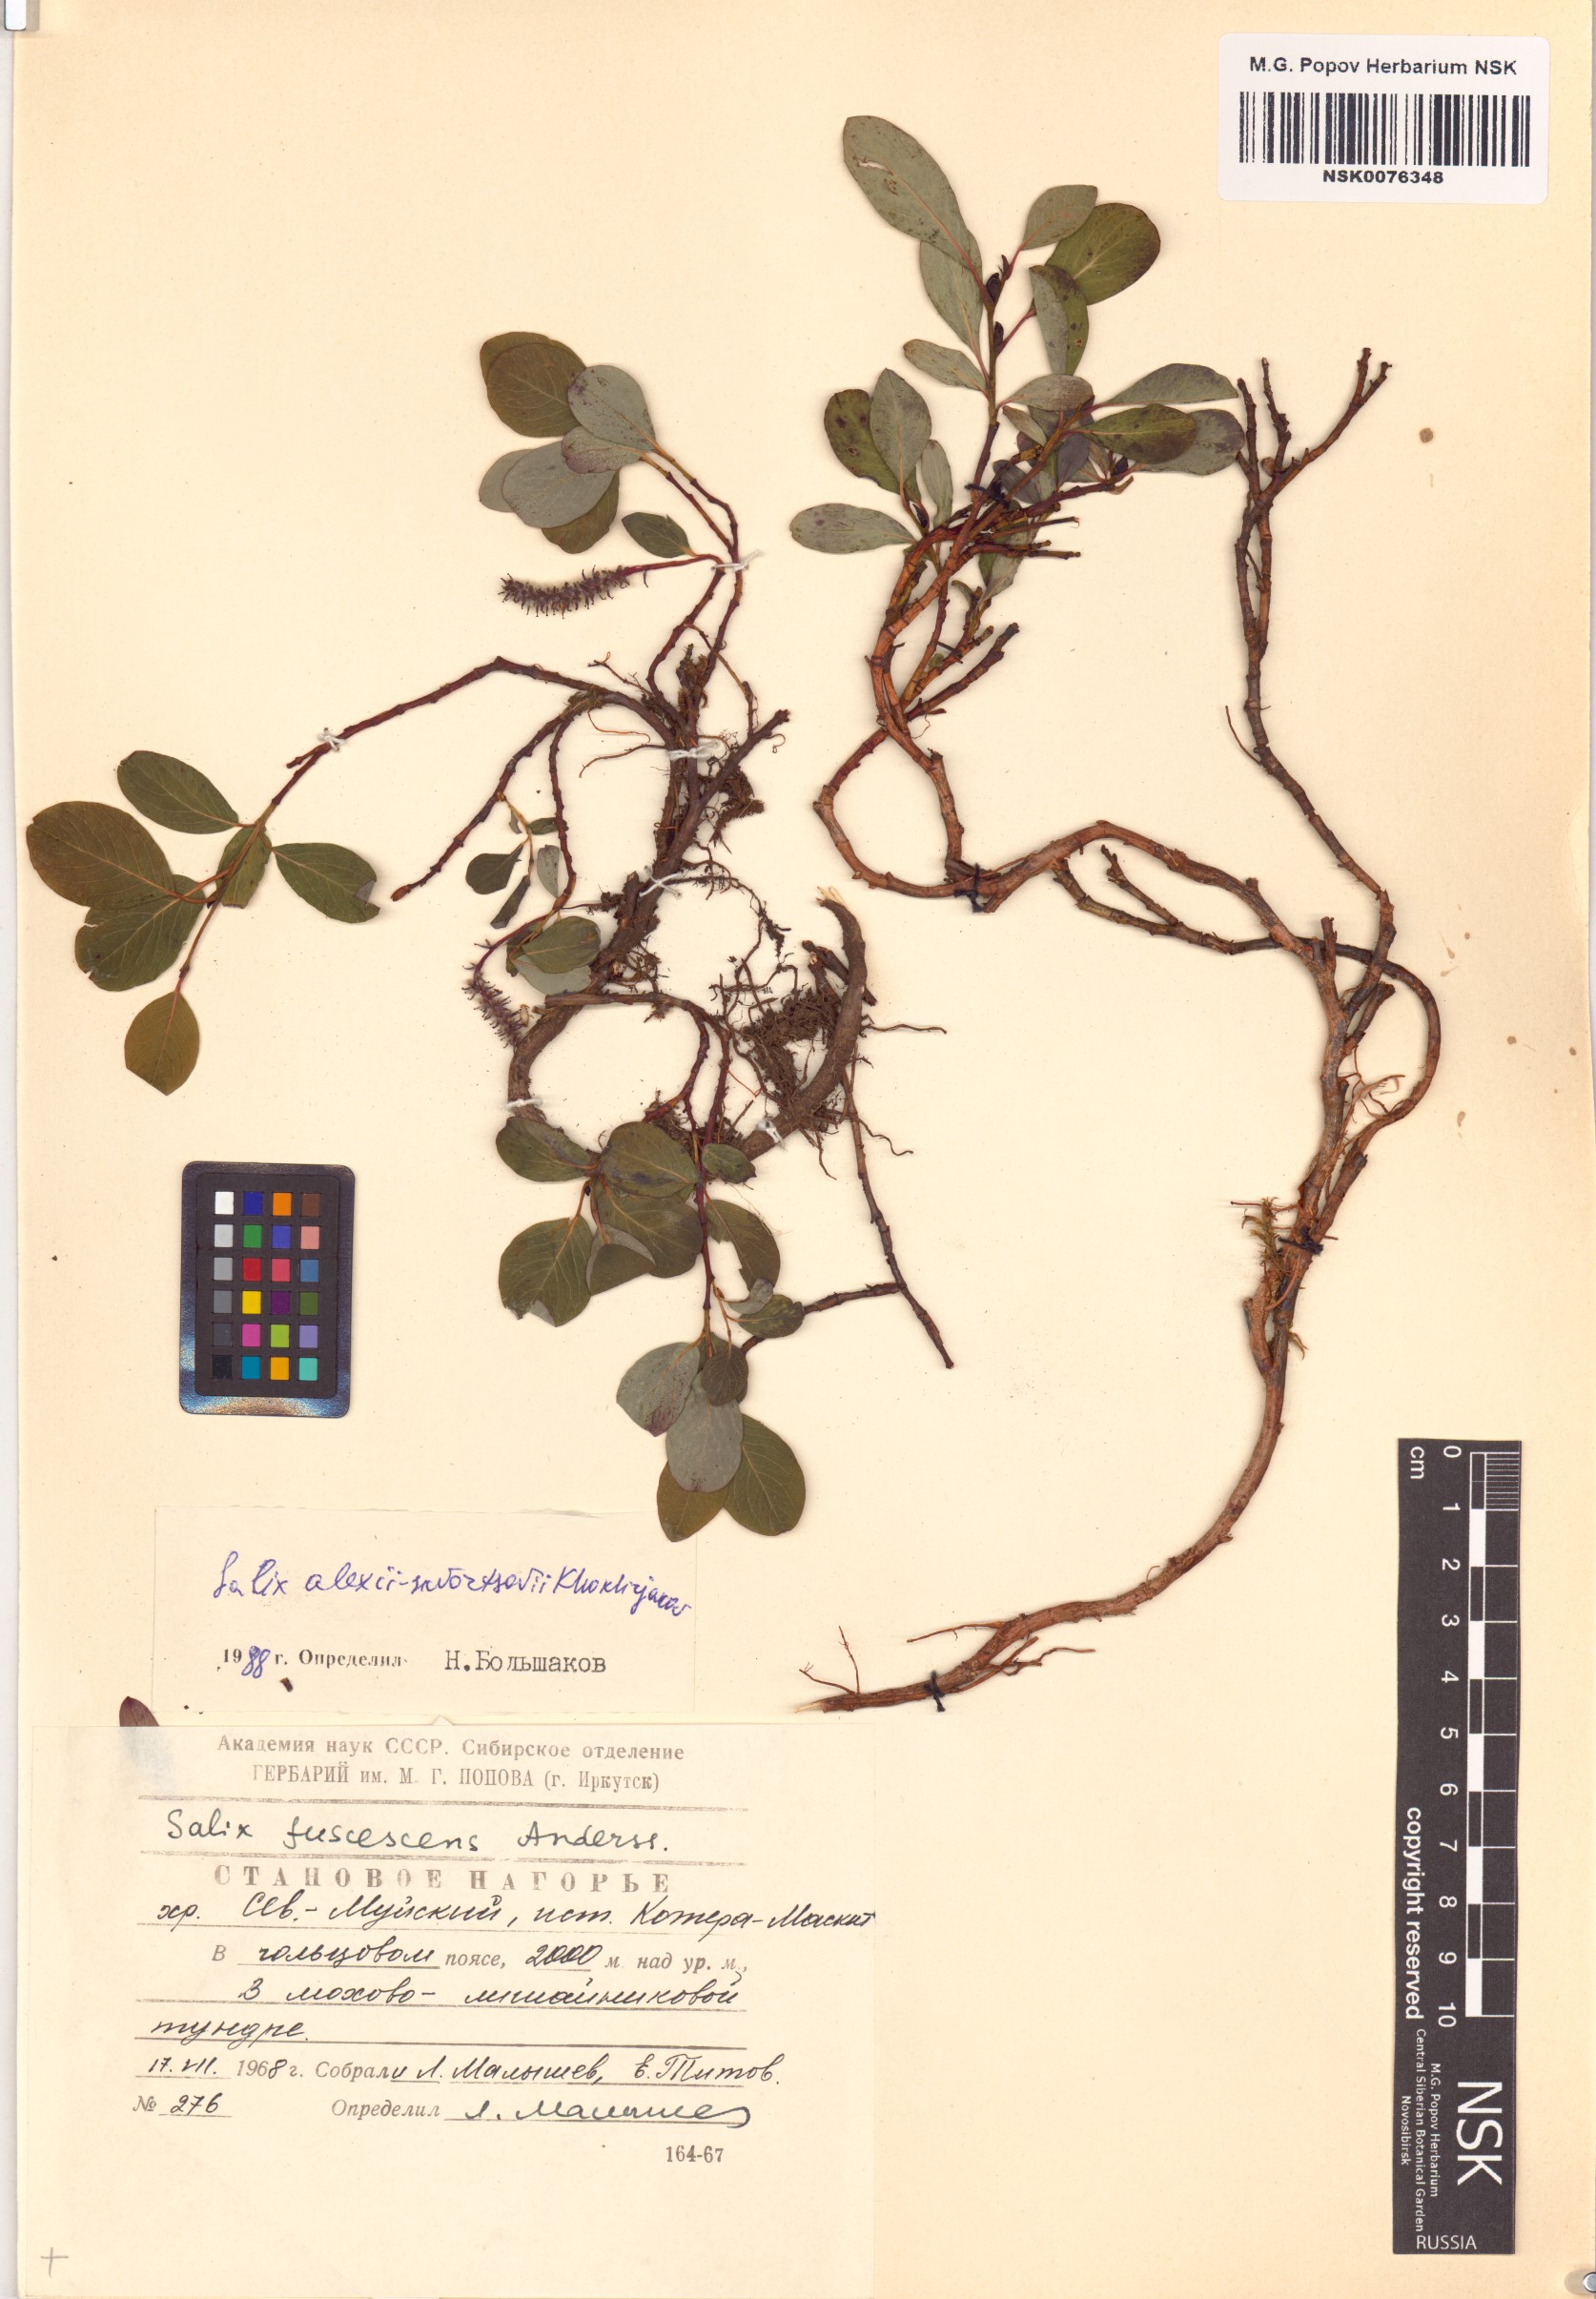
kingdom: Plantae
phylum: Tracheophyta
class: Magnoliopsida
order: Malpighiales
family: Salicaceae
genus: Salix
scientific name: Salix alexii-skvortzovii
